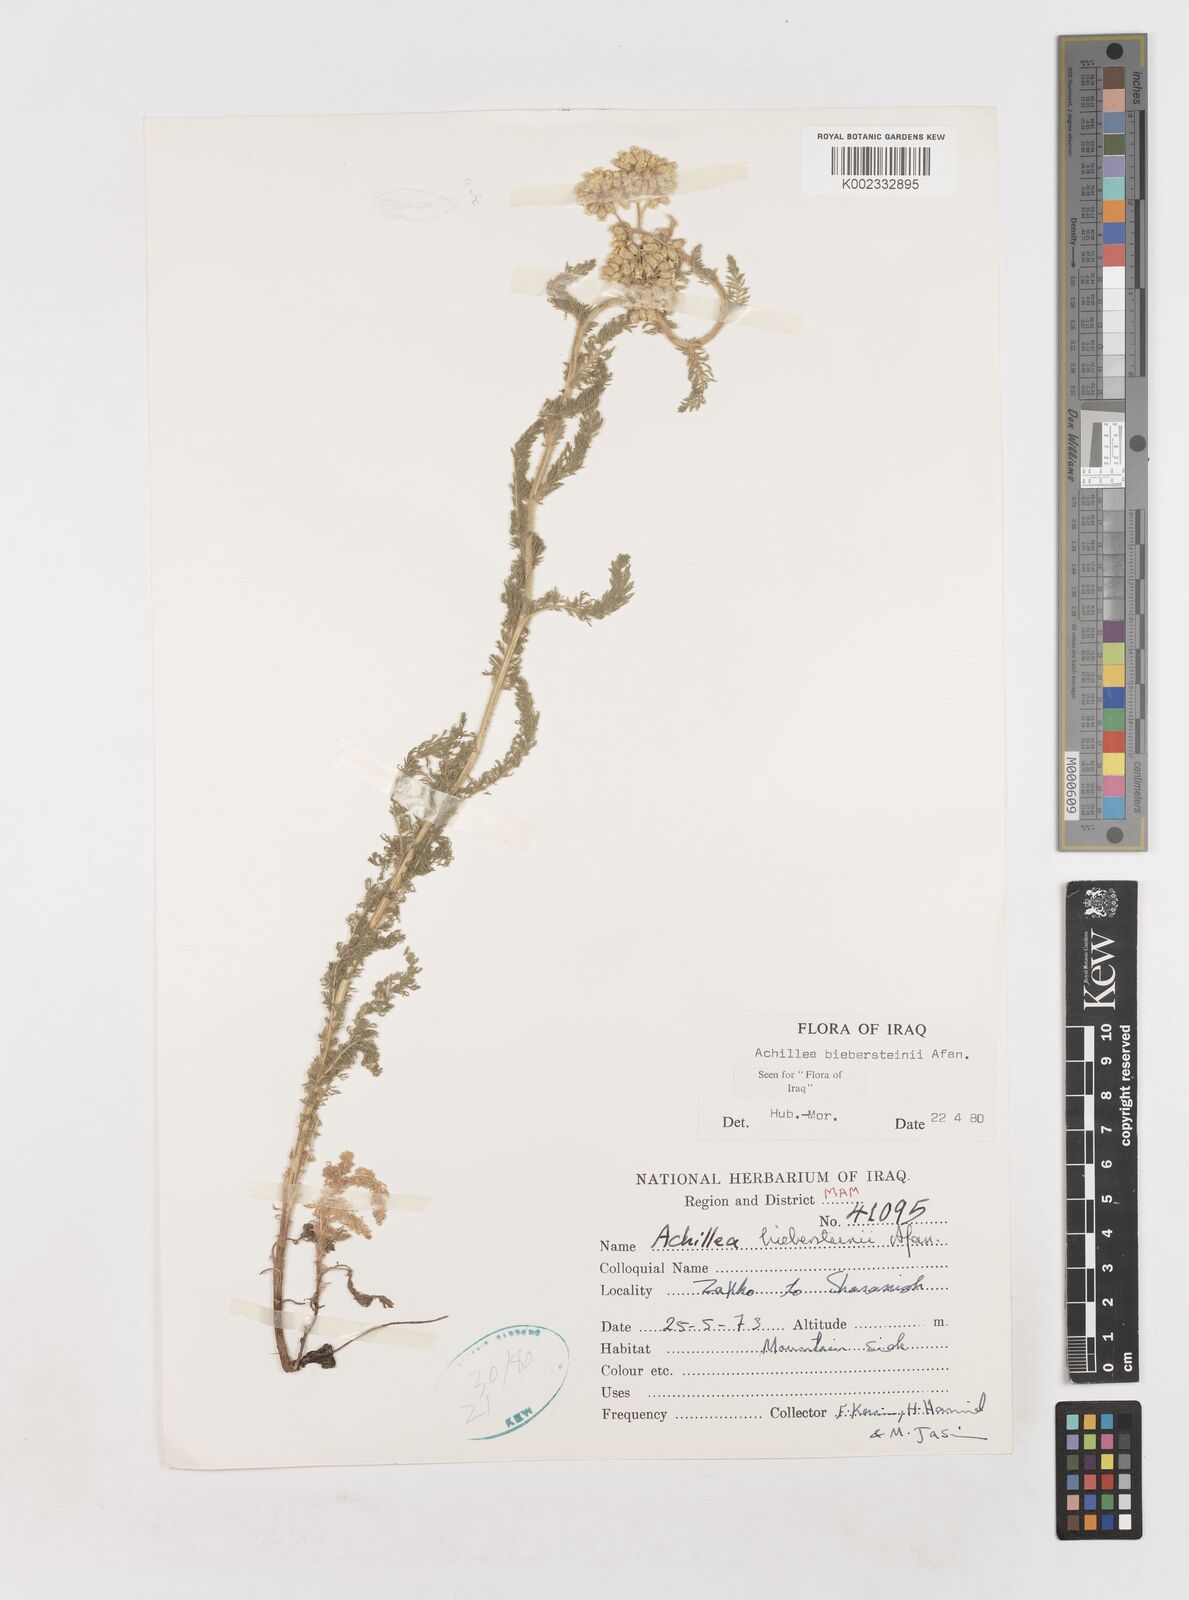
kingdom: Plantae
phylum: Tracheophyta
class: Magnoliopsida
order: Asterales
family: Asteraceae
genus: Achillea
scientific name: Achillea arabica
